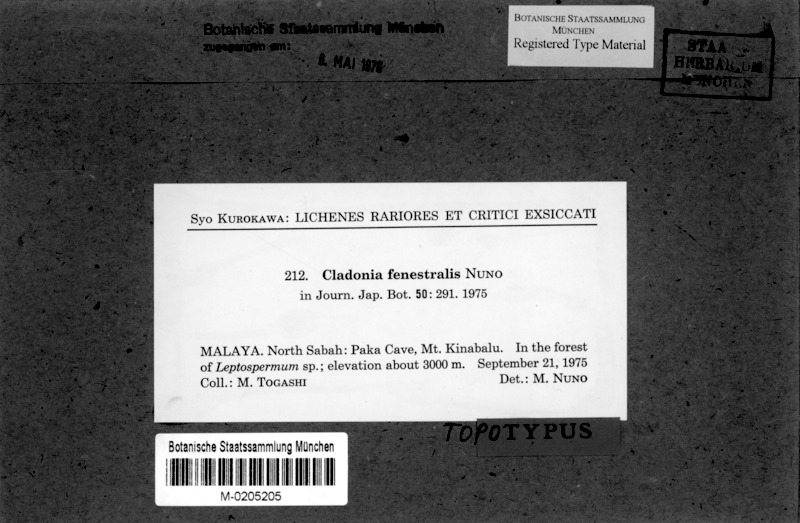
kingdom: Fungi
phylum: Ascomycota
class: Lecanoromycetes
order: Lecanorales
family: Cladoniaceae
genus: Cladonia
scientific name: Cladonia fenestralis
